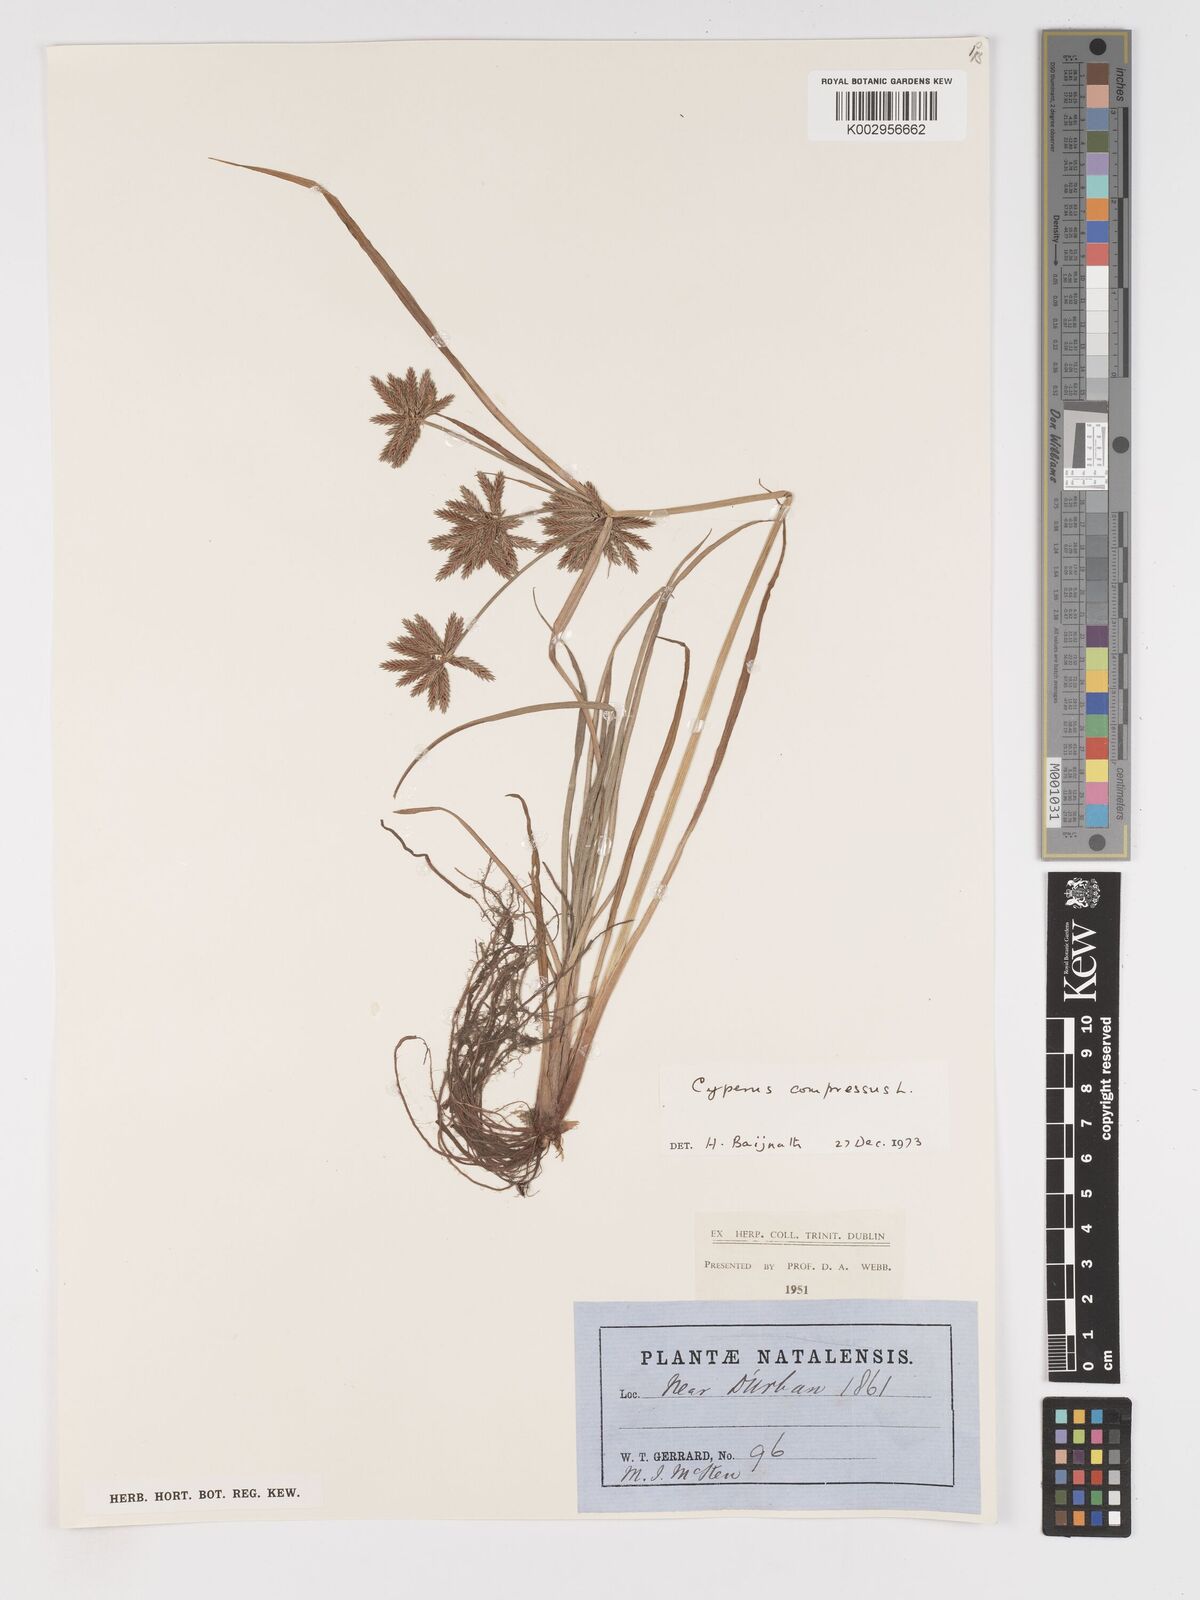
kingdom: Plantae
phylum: Tracheophyta
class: Liliopsida
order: Poales
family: Cyperaceae
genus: Cyperus
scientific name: Cyperus compressus
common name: Poorland flatsedge
